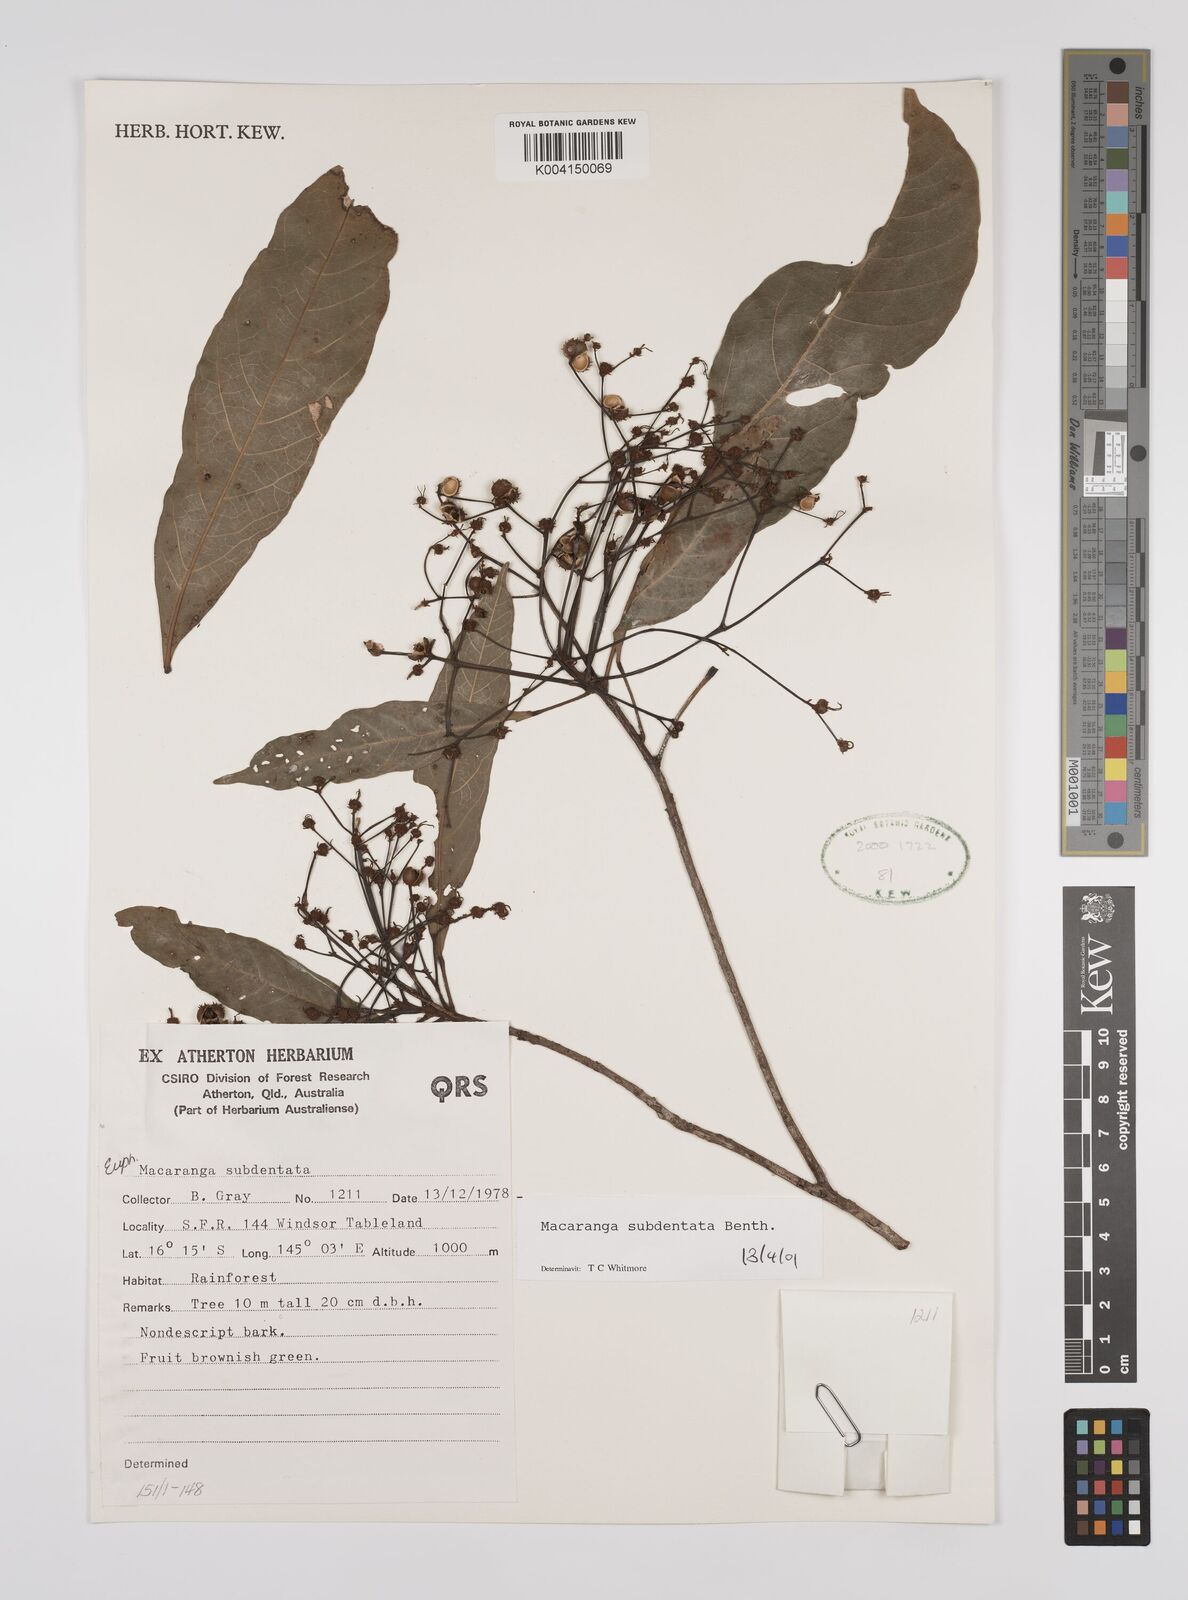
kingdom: Plantae
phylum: Tracheophyta
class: Magnoliopsida
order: Malpighiales
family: Euphorbiaceae
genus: Macaranga
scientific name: Macaranga subdentata
